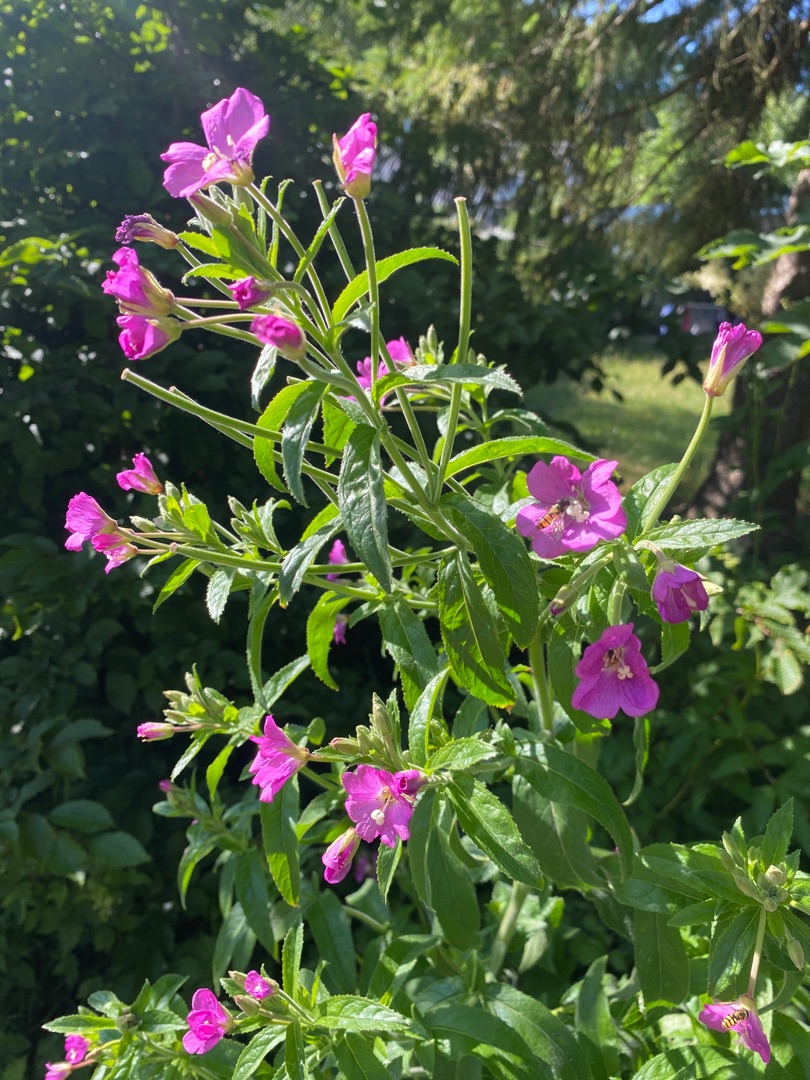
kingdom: Plantae
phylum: Tracheophyta
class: Magnoliopsida
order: Myrtales
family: Onagraceae
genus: Epilobium
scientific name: Epilobium hirsutum
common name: Lådden dueurt
